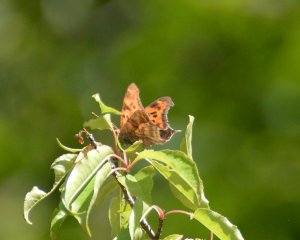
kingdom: Animalia
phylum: Arthropoda
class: Insecta
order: Lepidoptera
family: Nymphalidae
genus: Polygonia
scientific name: Polygonia interrogationis
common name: Question Mark
